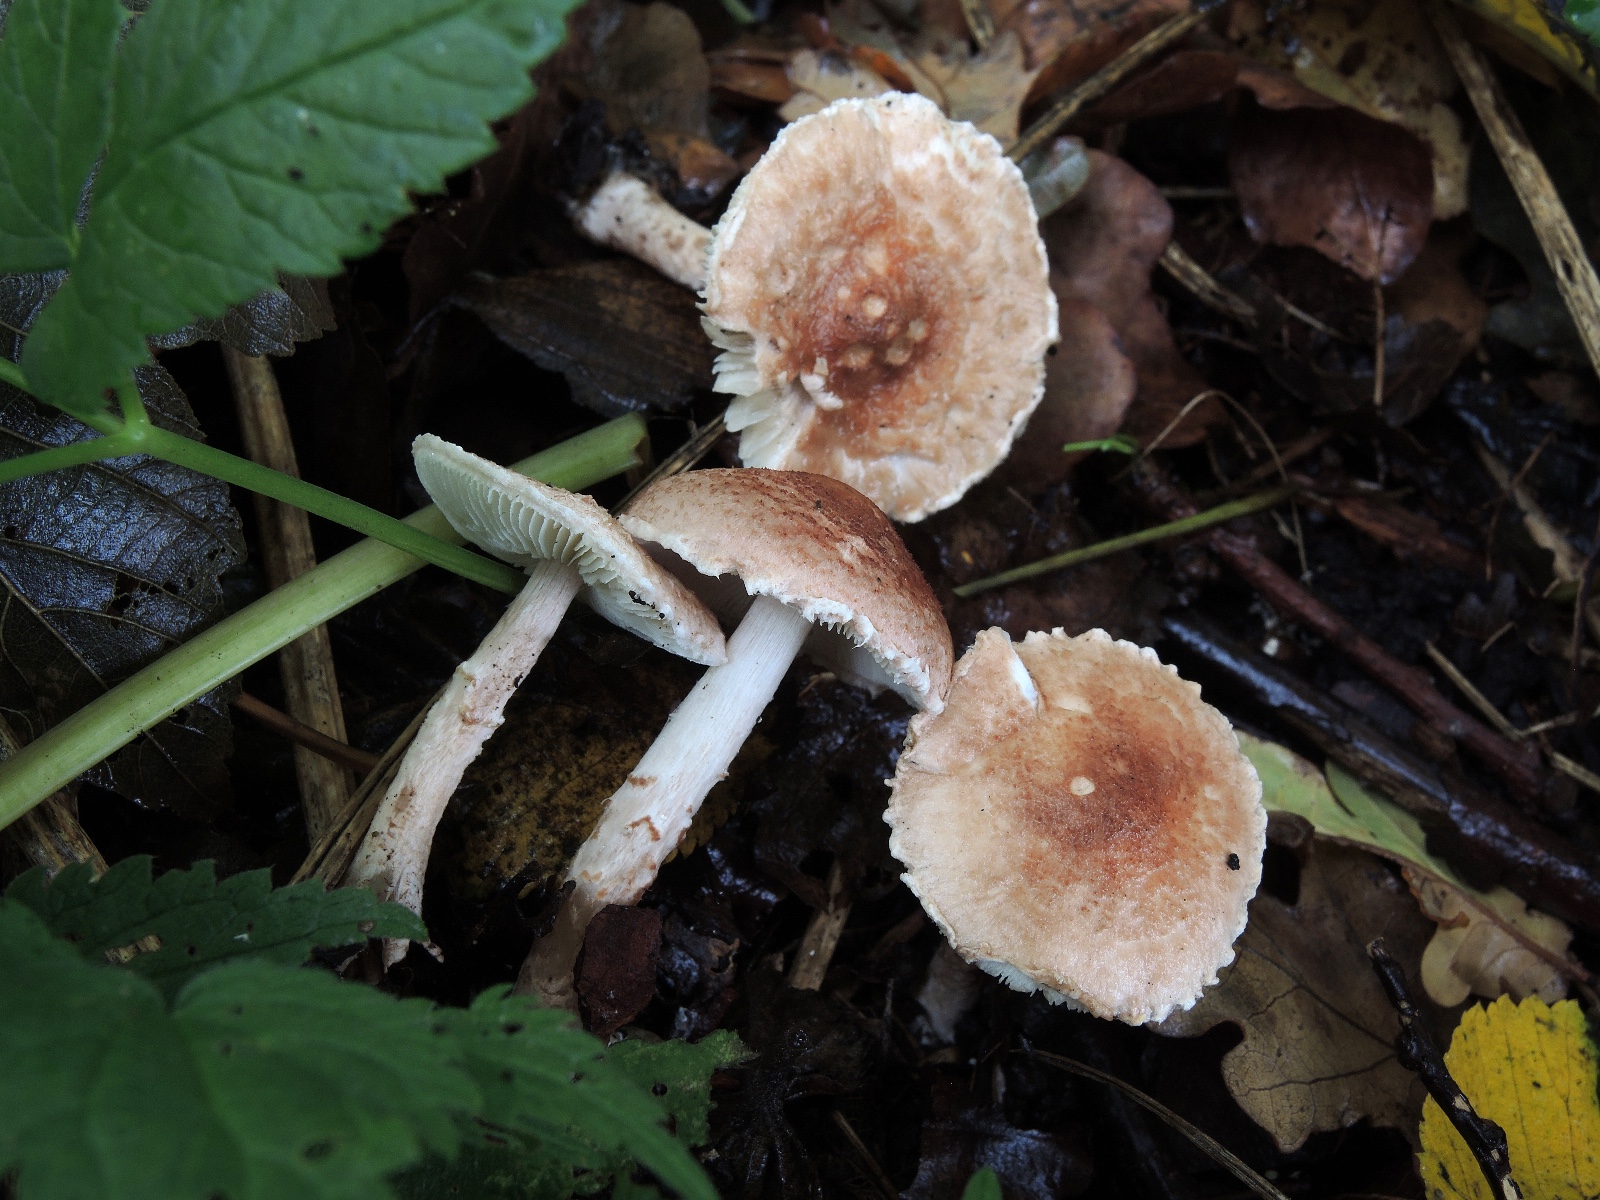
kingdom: Fungi
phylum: Basidiomycota
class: Agaricomycetes
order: Agaricales
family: Agaricaceae
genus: Lepiota
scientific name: Lepiota subincarnata
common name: kødfarvet parasolhat
